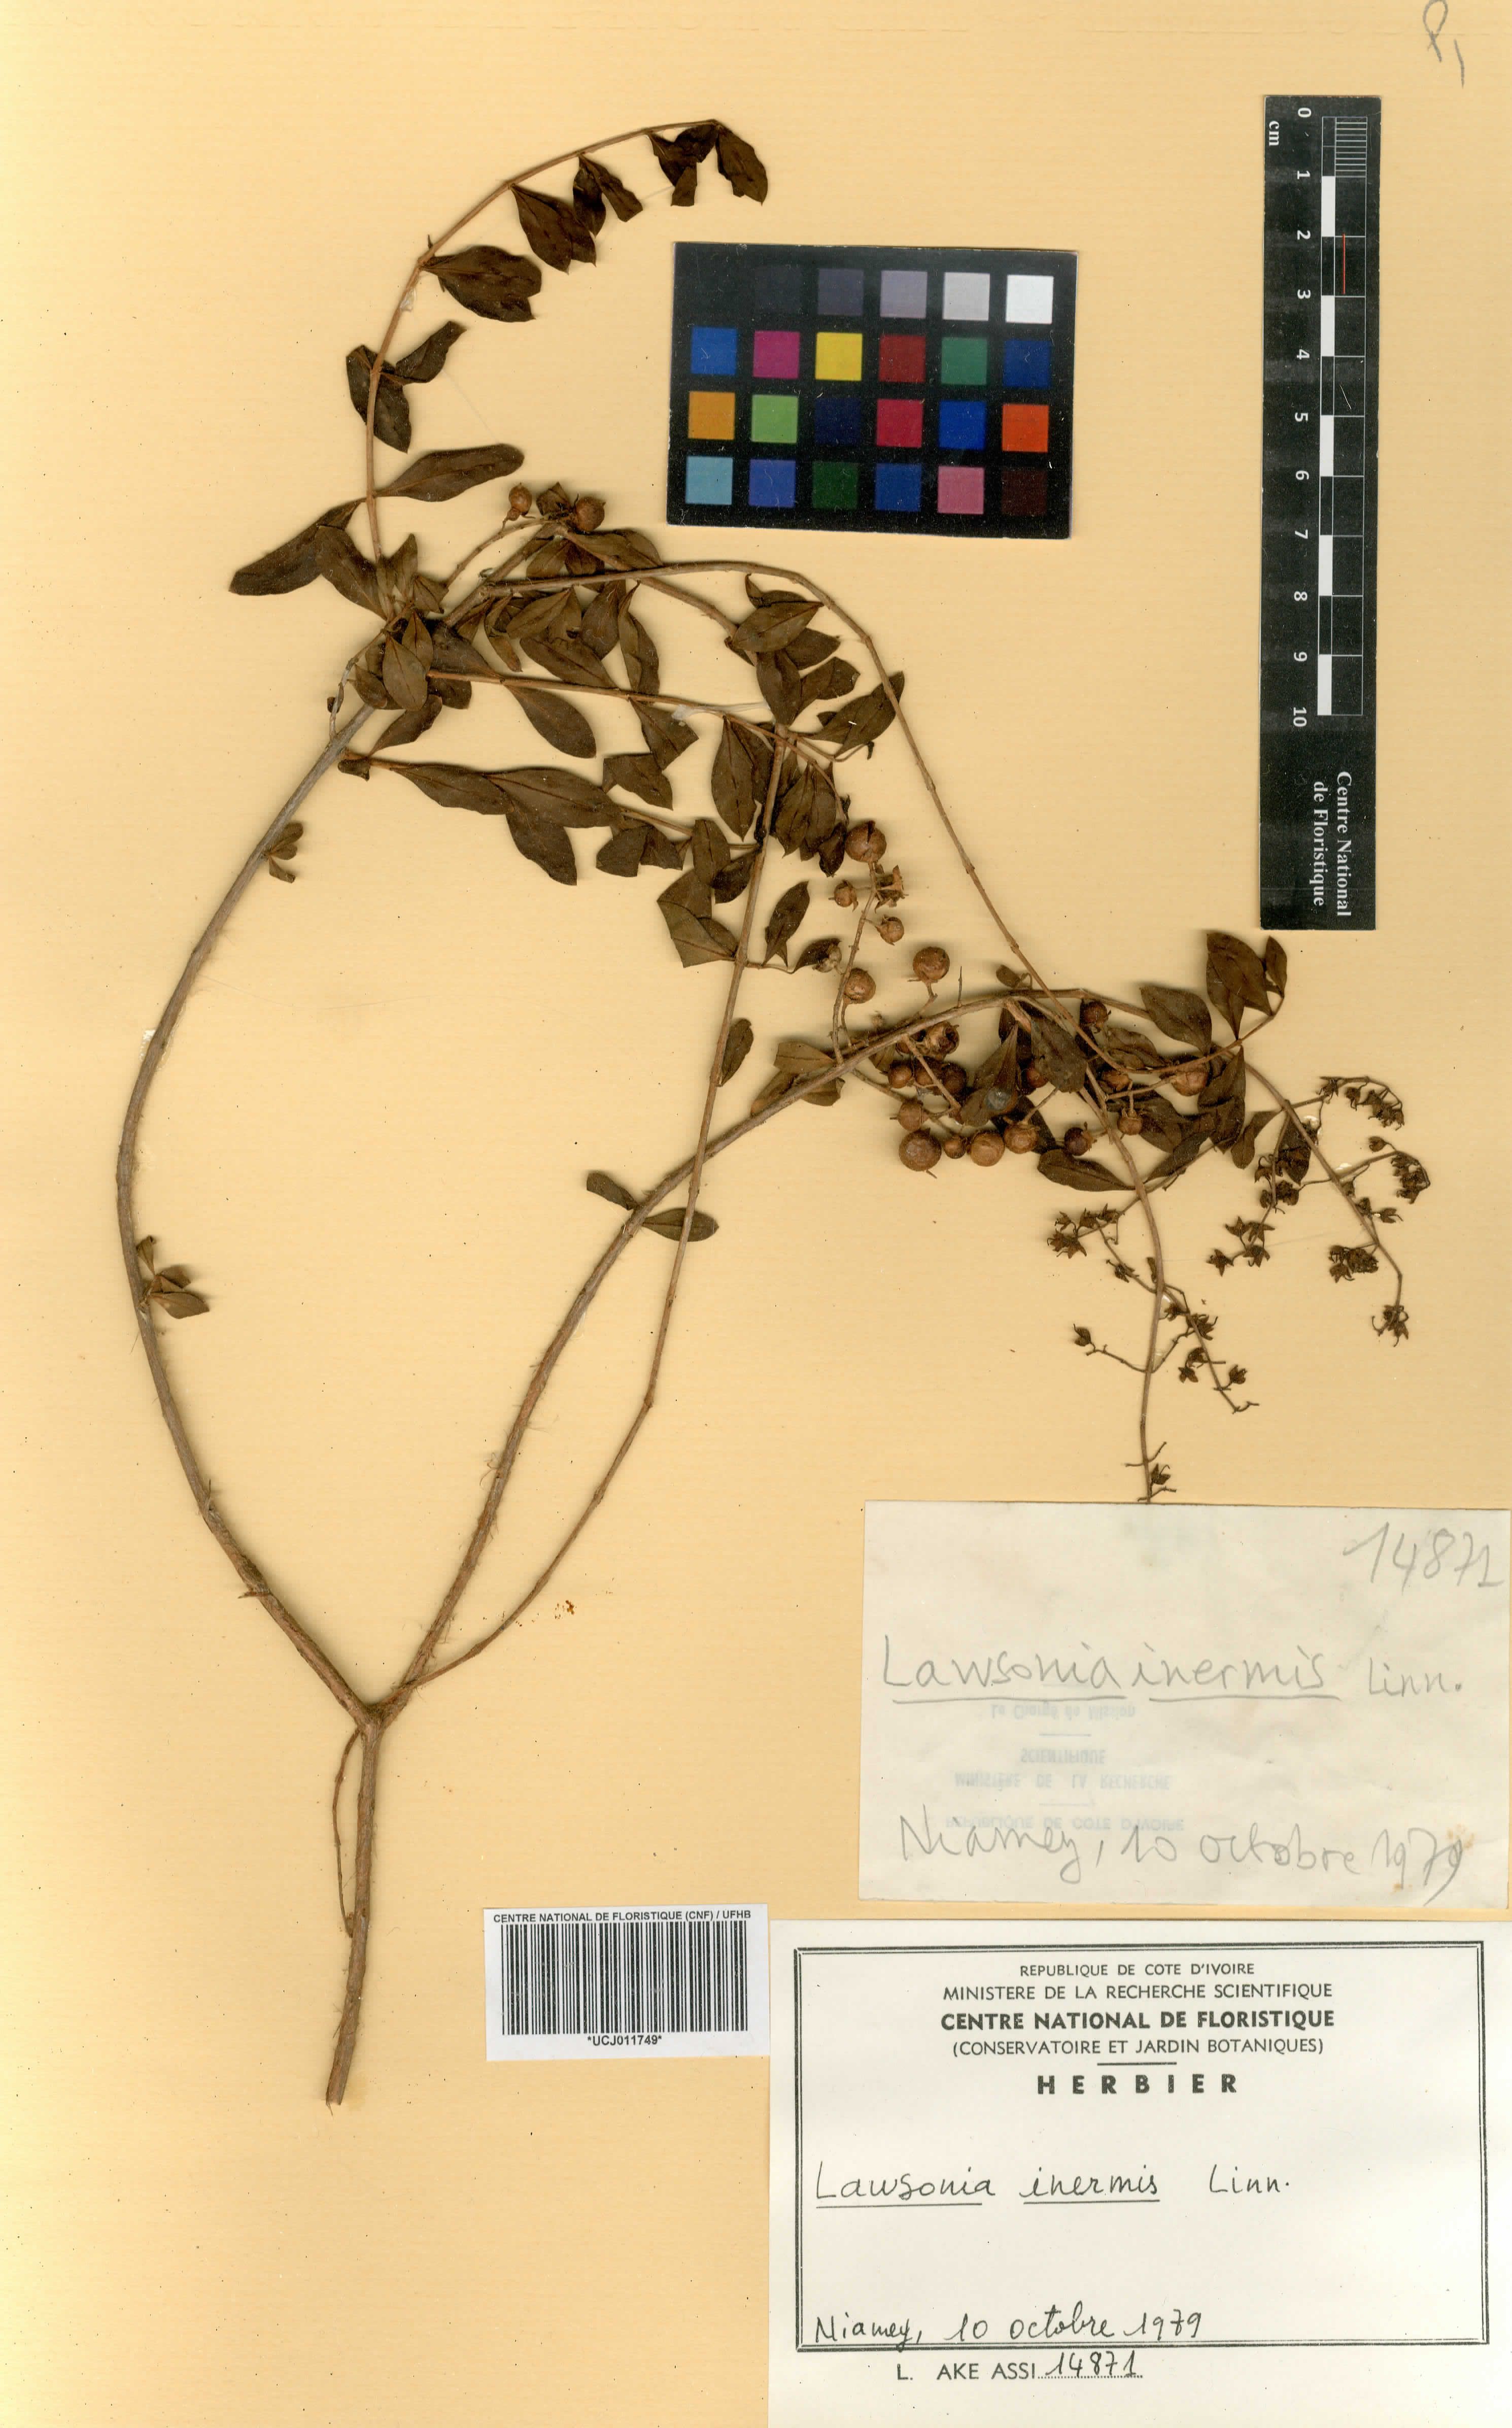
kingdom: Plantae
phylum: Tracheophyta
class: Magnoliopsida
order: Myrtales
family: Lythraceae
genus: Lawsonia
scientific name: Lawsonia inermis
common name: Henna
